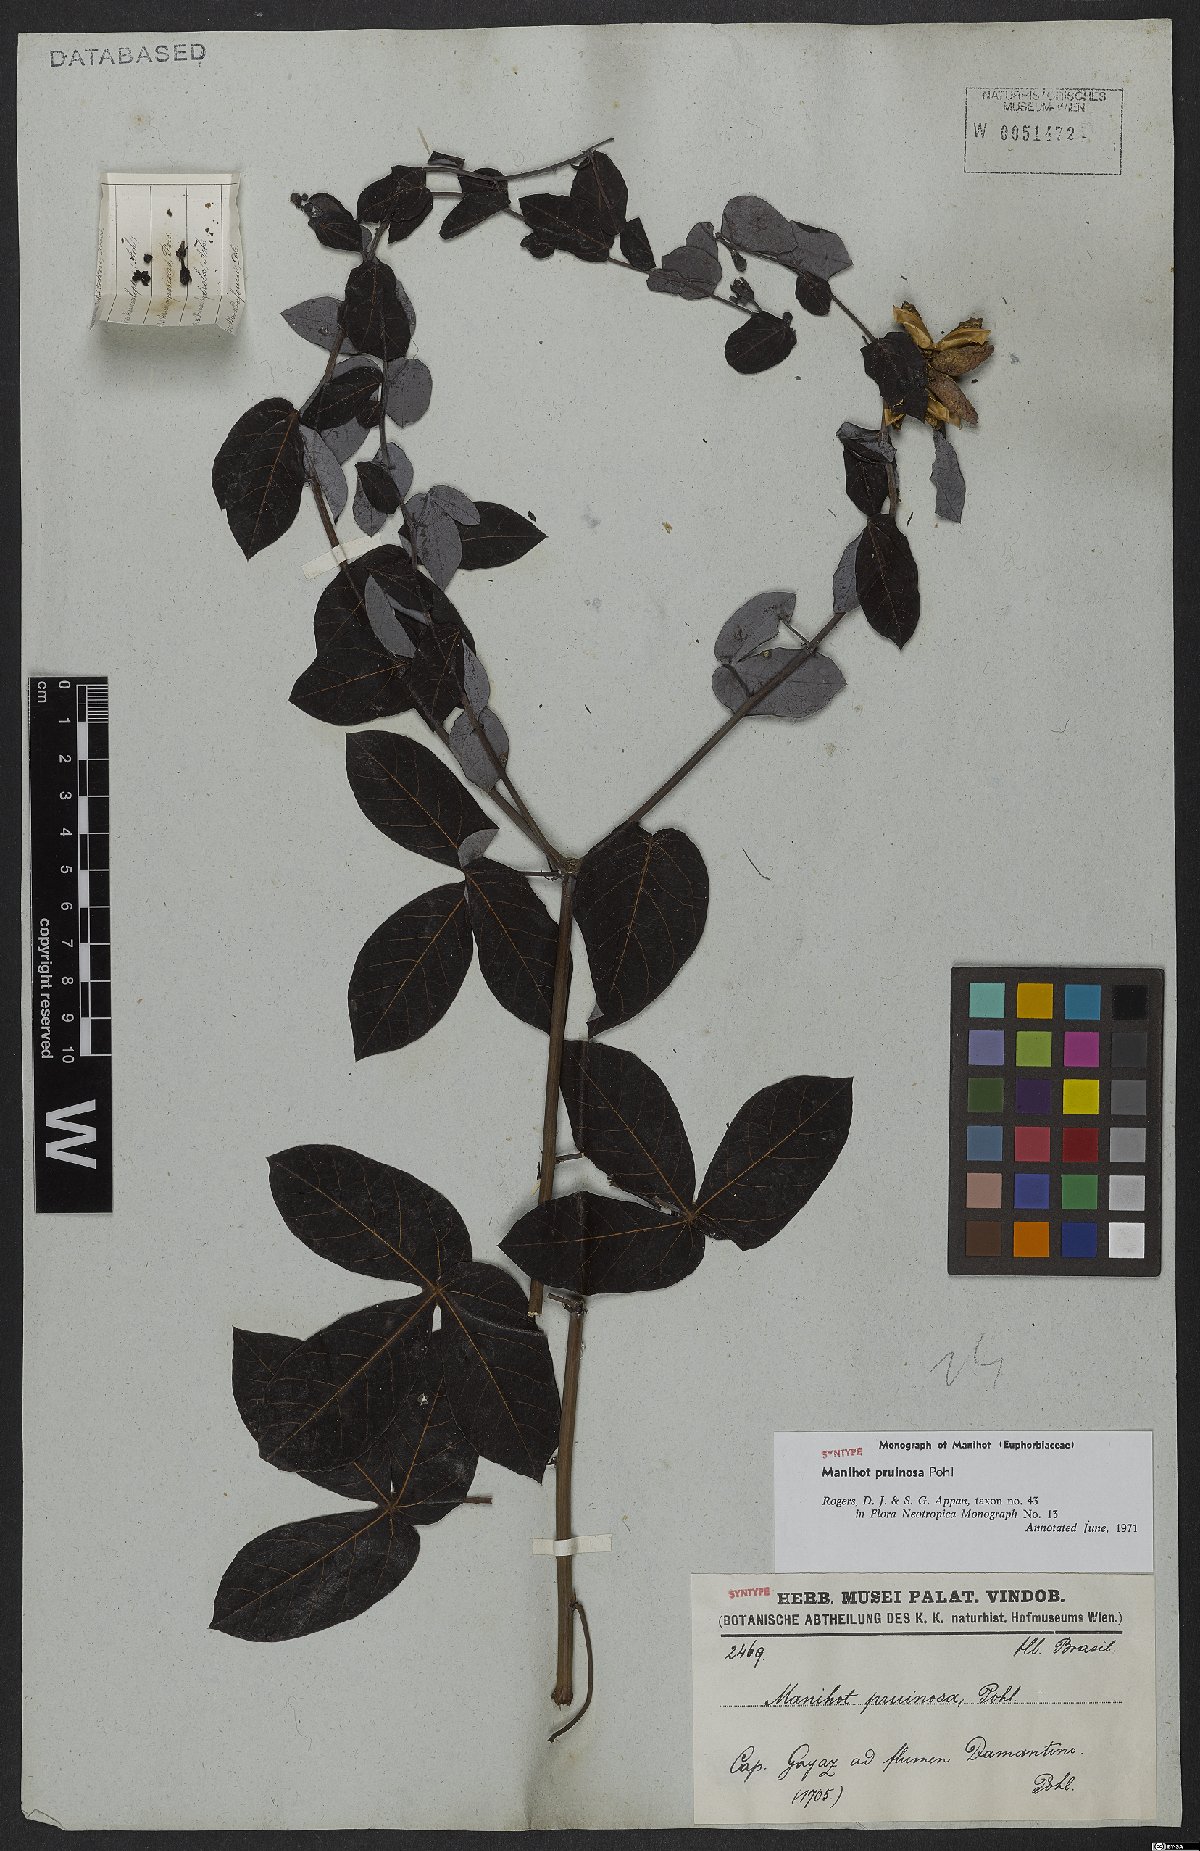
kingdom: Plantae
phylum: Tracheophyta
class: Magnoliopsida
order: Malpighiales
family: Euphorbiaceae
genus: Manihot
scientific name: Manihot pruinosa
